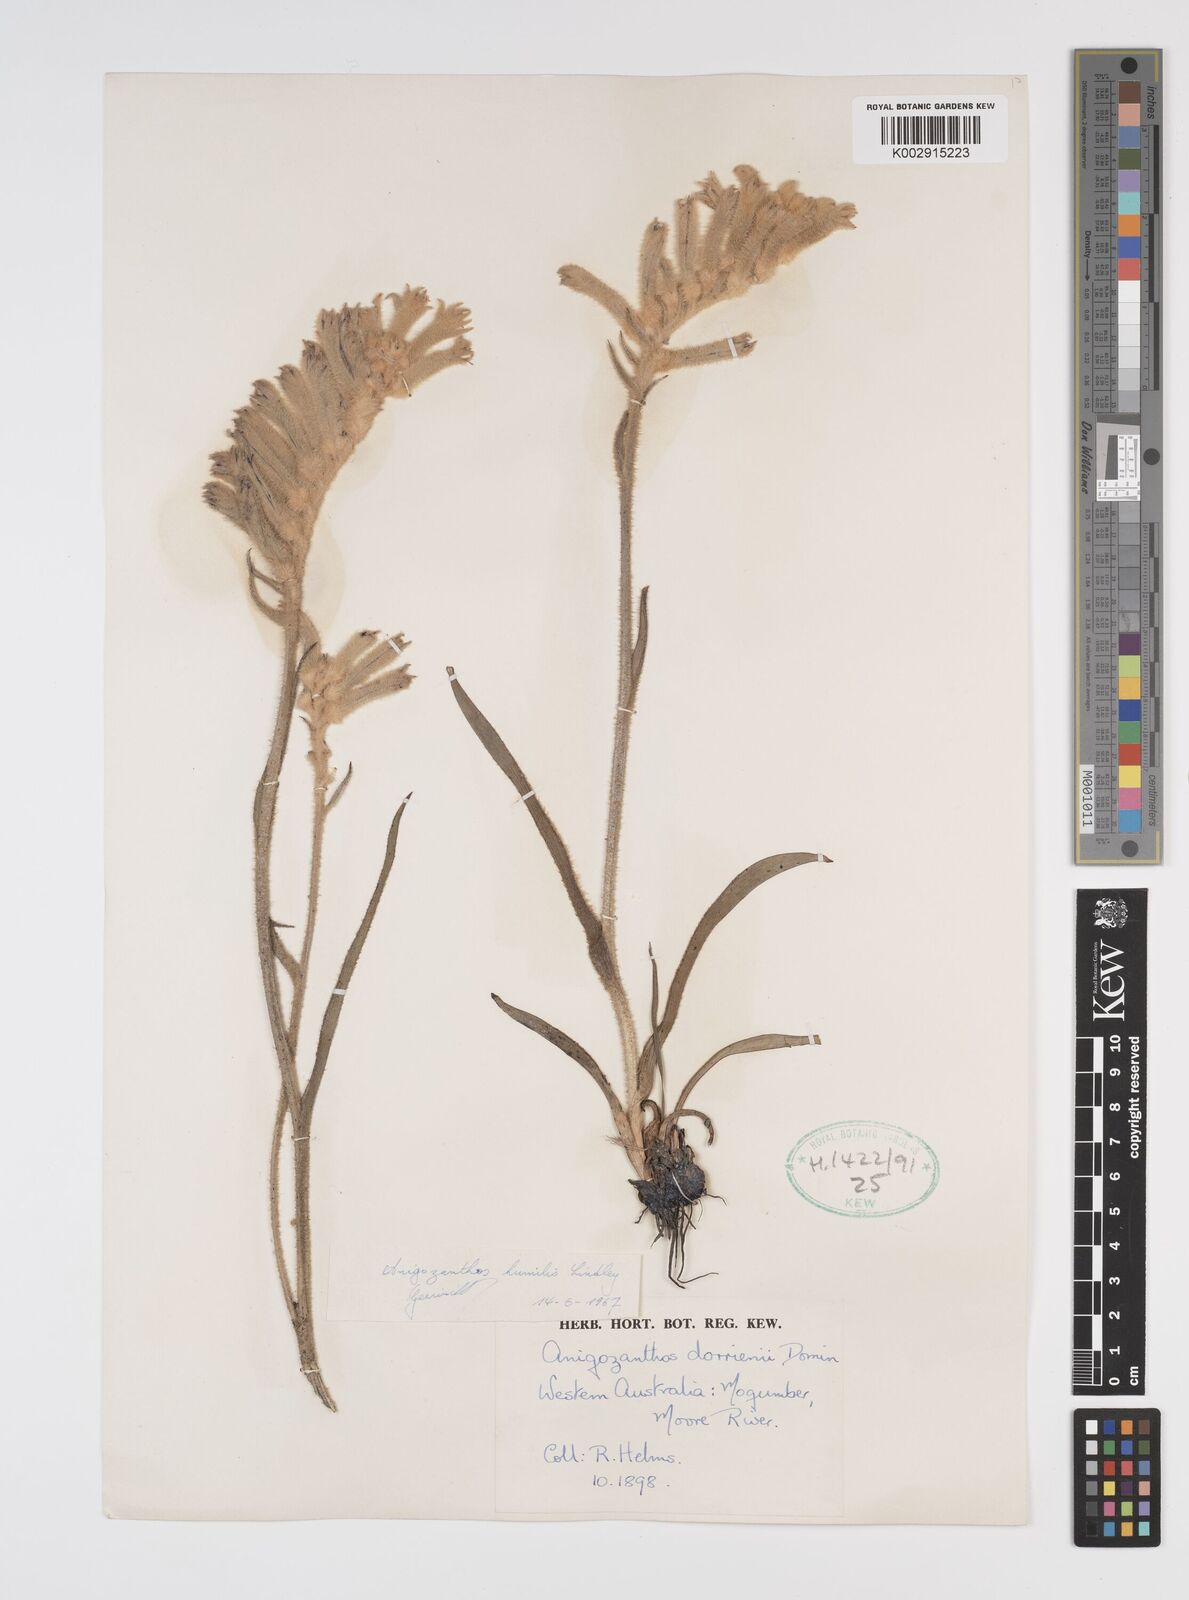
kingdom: Plantae
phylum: Tracheophyta
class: Liliopsida
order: Commelinales
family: Haemodoraceae
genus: Anigozanthos
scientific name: Anigozanthos humilis
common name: Cat's-paw
